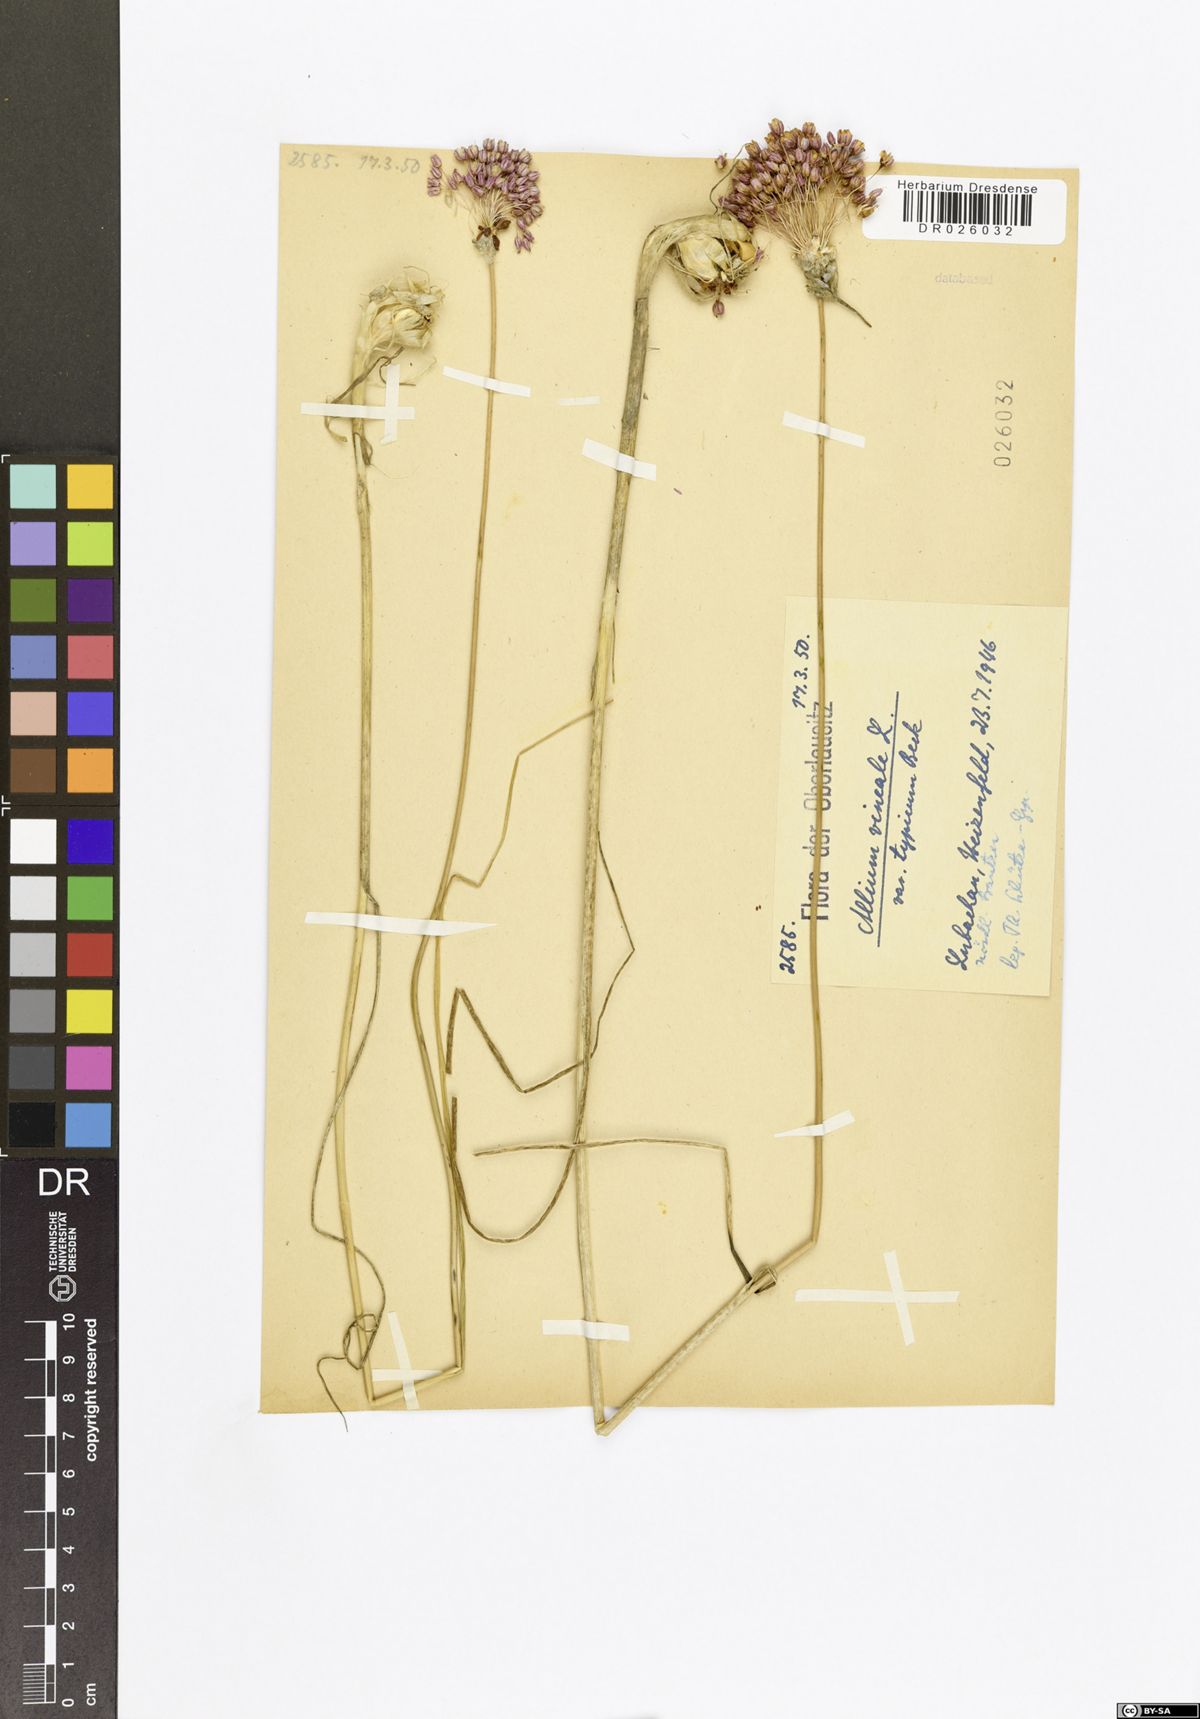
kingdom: Plantae
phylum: Tracheophyta
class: Liliopsida
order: Asparagales
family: Amaryllidaceae
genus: Allium
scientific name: Allium vineale
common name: Crow garlic
